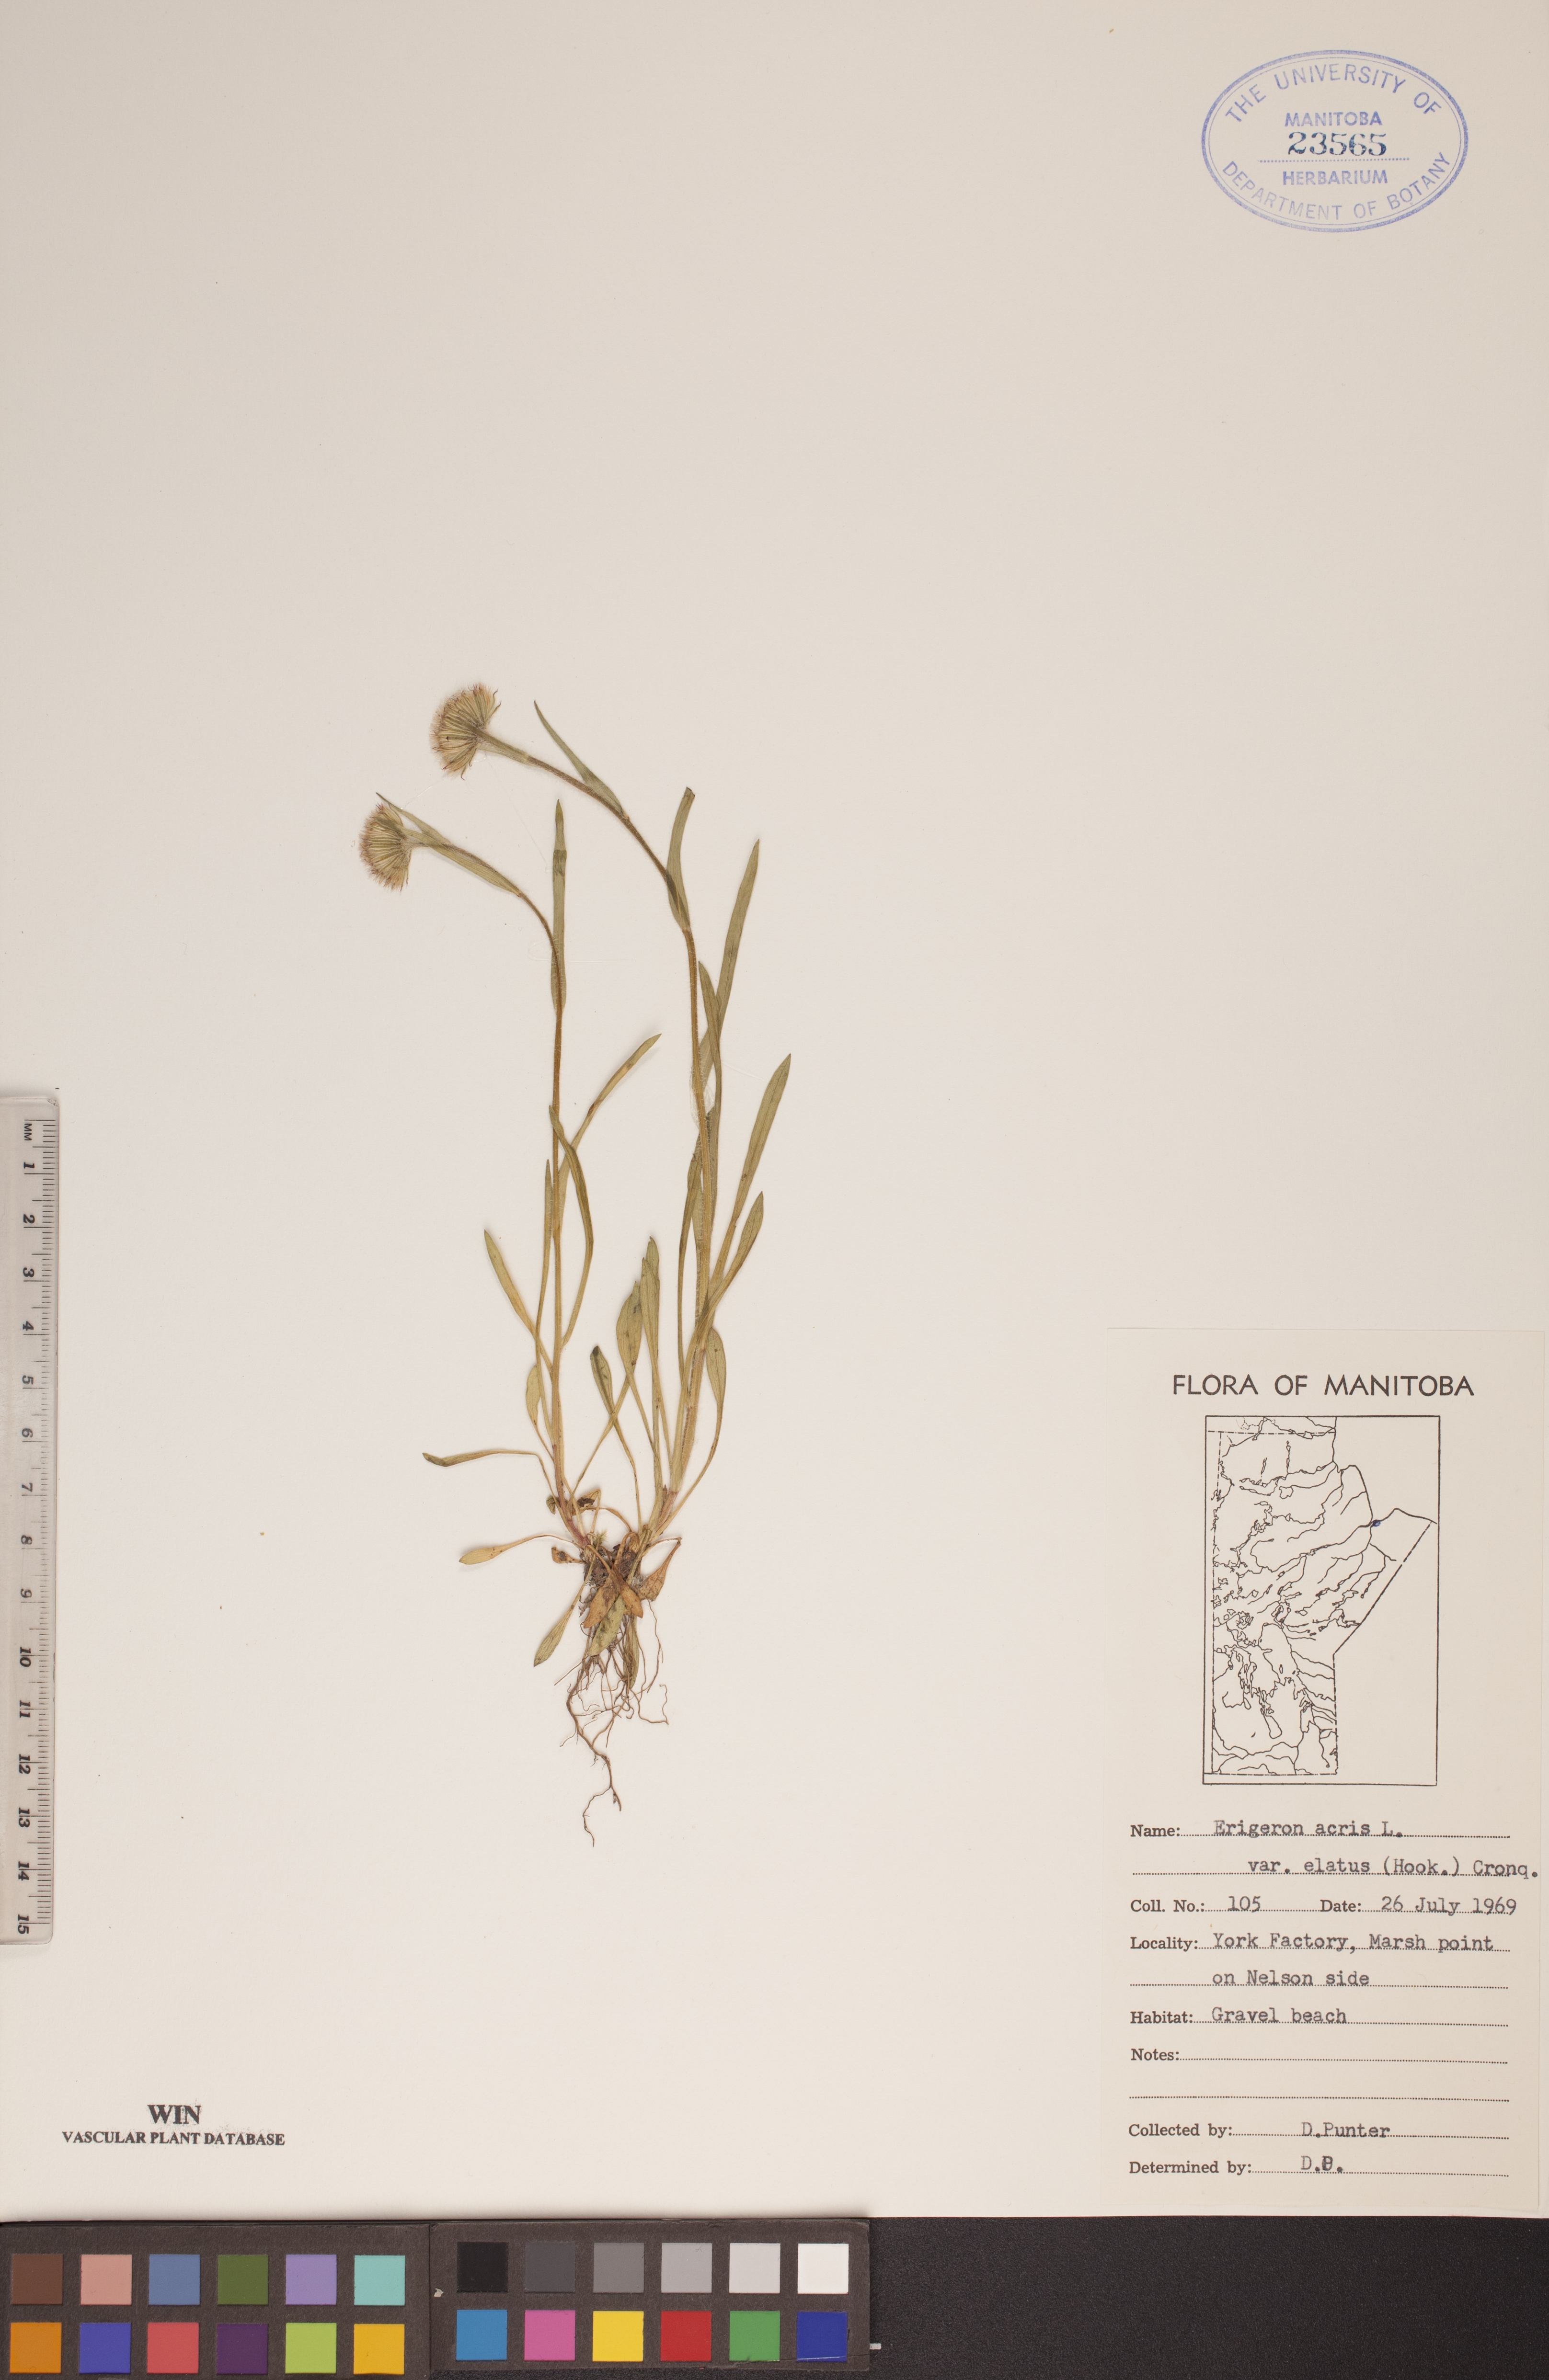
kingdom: Plantae
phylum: Tracheophyta
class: Magnoliopsida
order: Asterales
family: Asteraceae
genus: Erigeron
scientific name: Erigeron elatus
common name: Swamp fleabane
